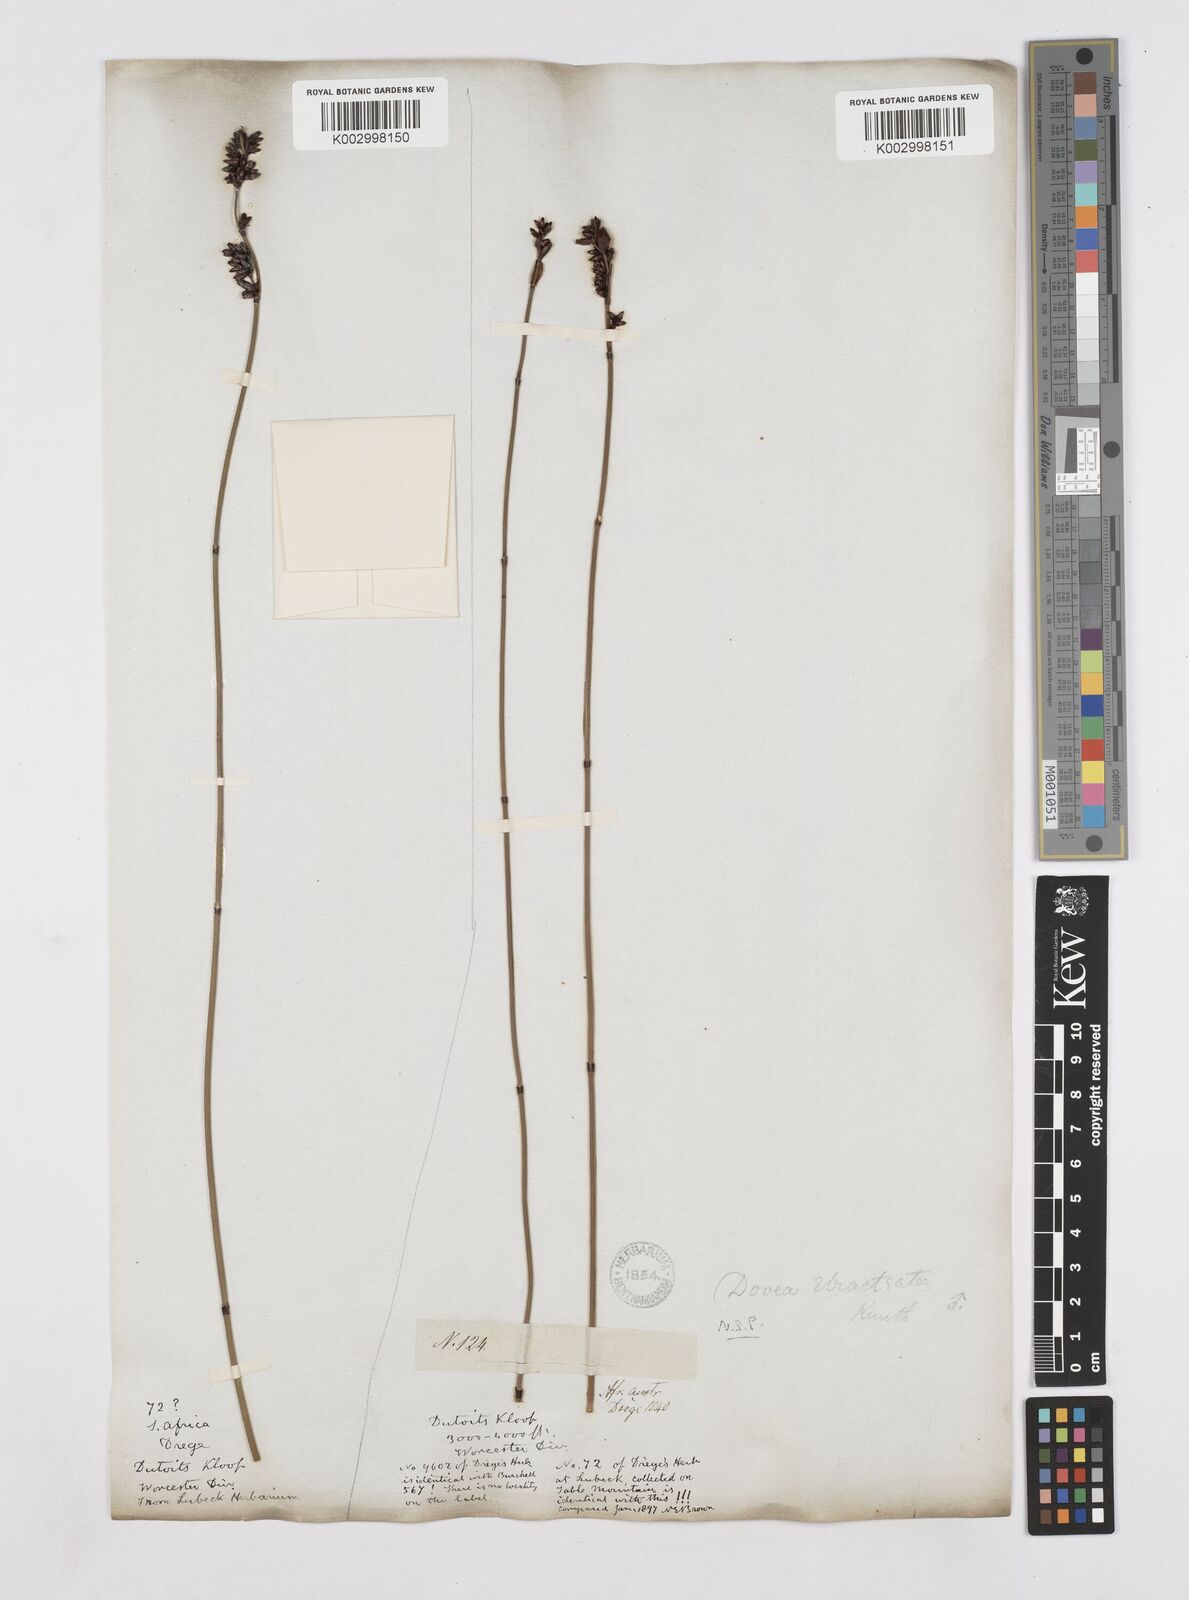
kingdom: Plantae
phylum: Tracheophyta
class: Liliopsida
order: Poales
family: Restionaceae
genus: Elegia
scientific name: Elegia hookeriana
